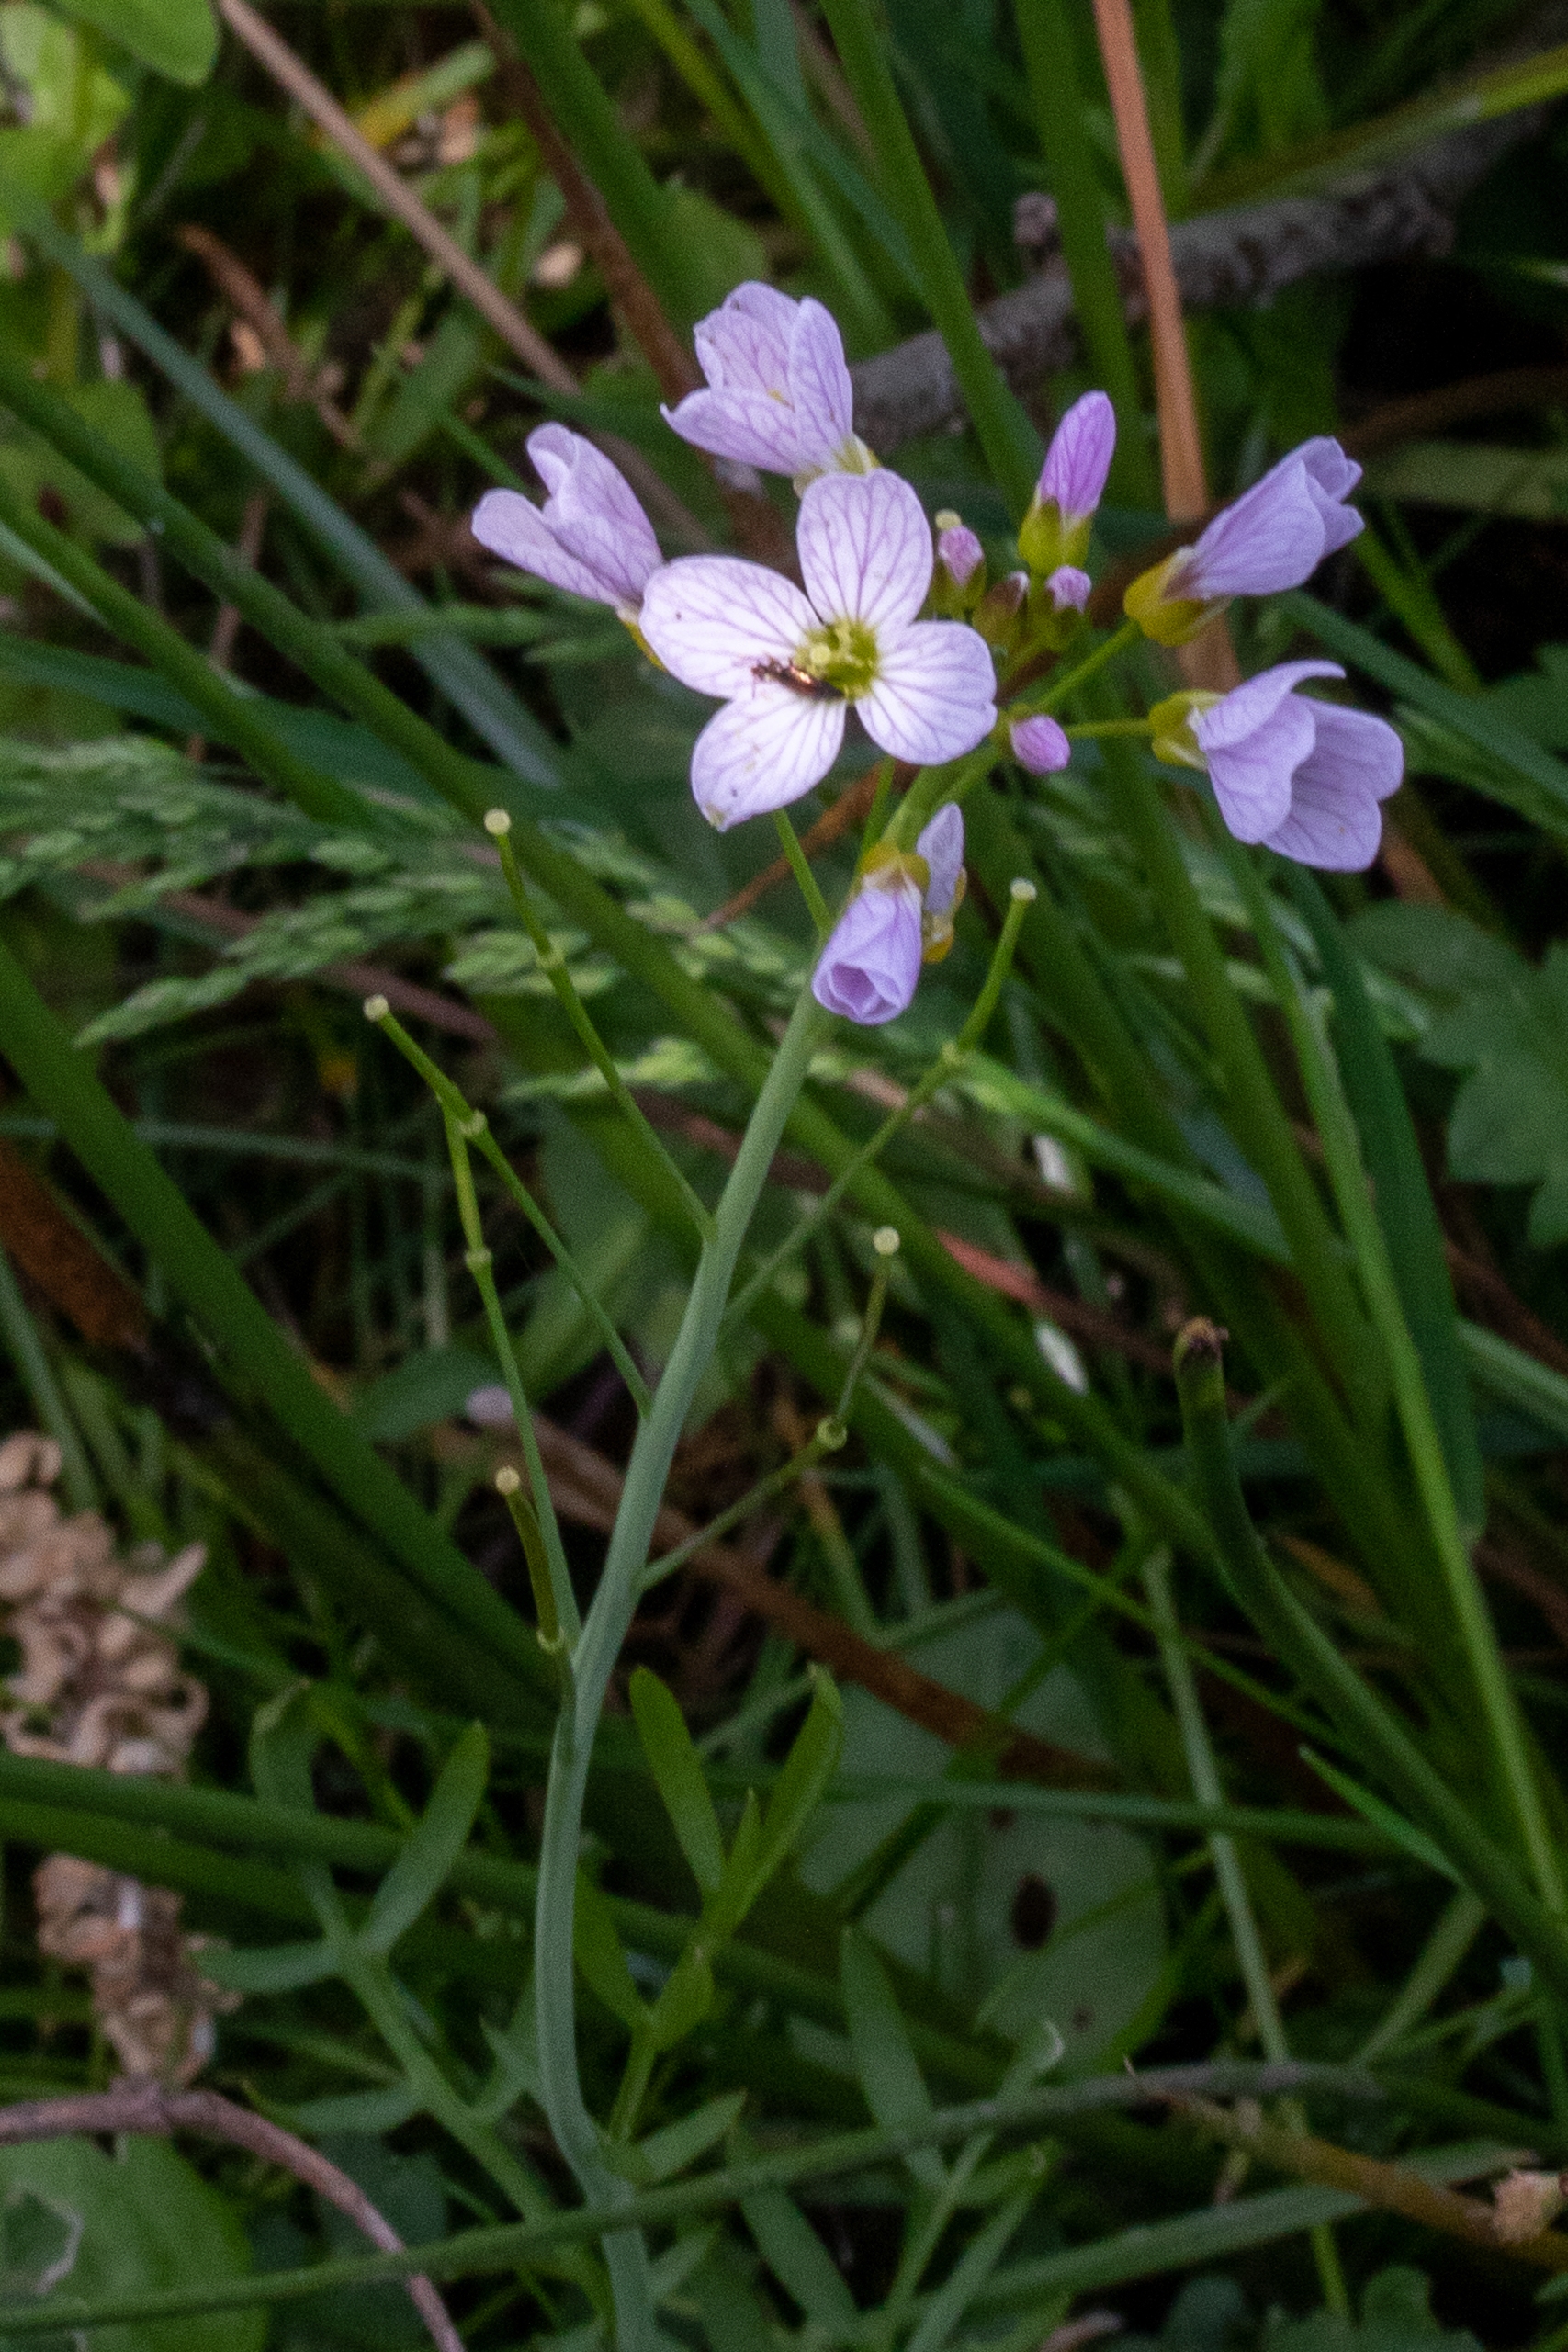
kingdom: Plantae
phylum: Tracheophyta
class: Magnoliopsida
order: Brassicales
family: Brassicaceae
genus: Cardamine
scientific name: Cardamine pratensis
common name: Engkarse
